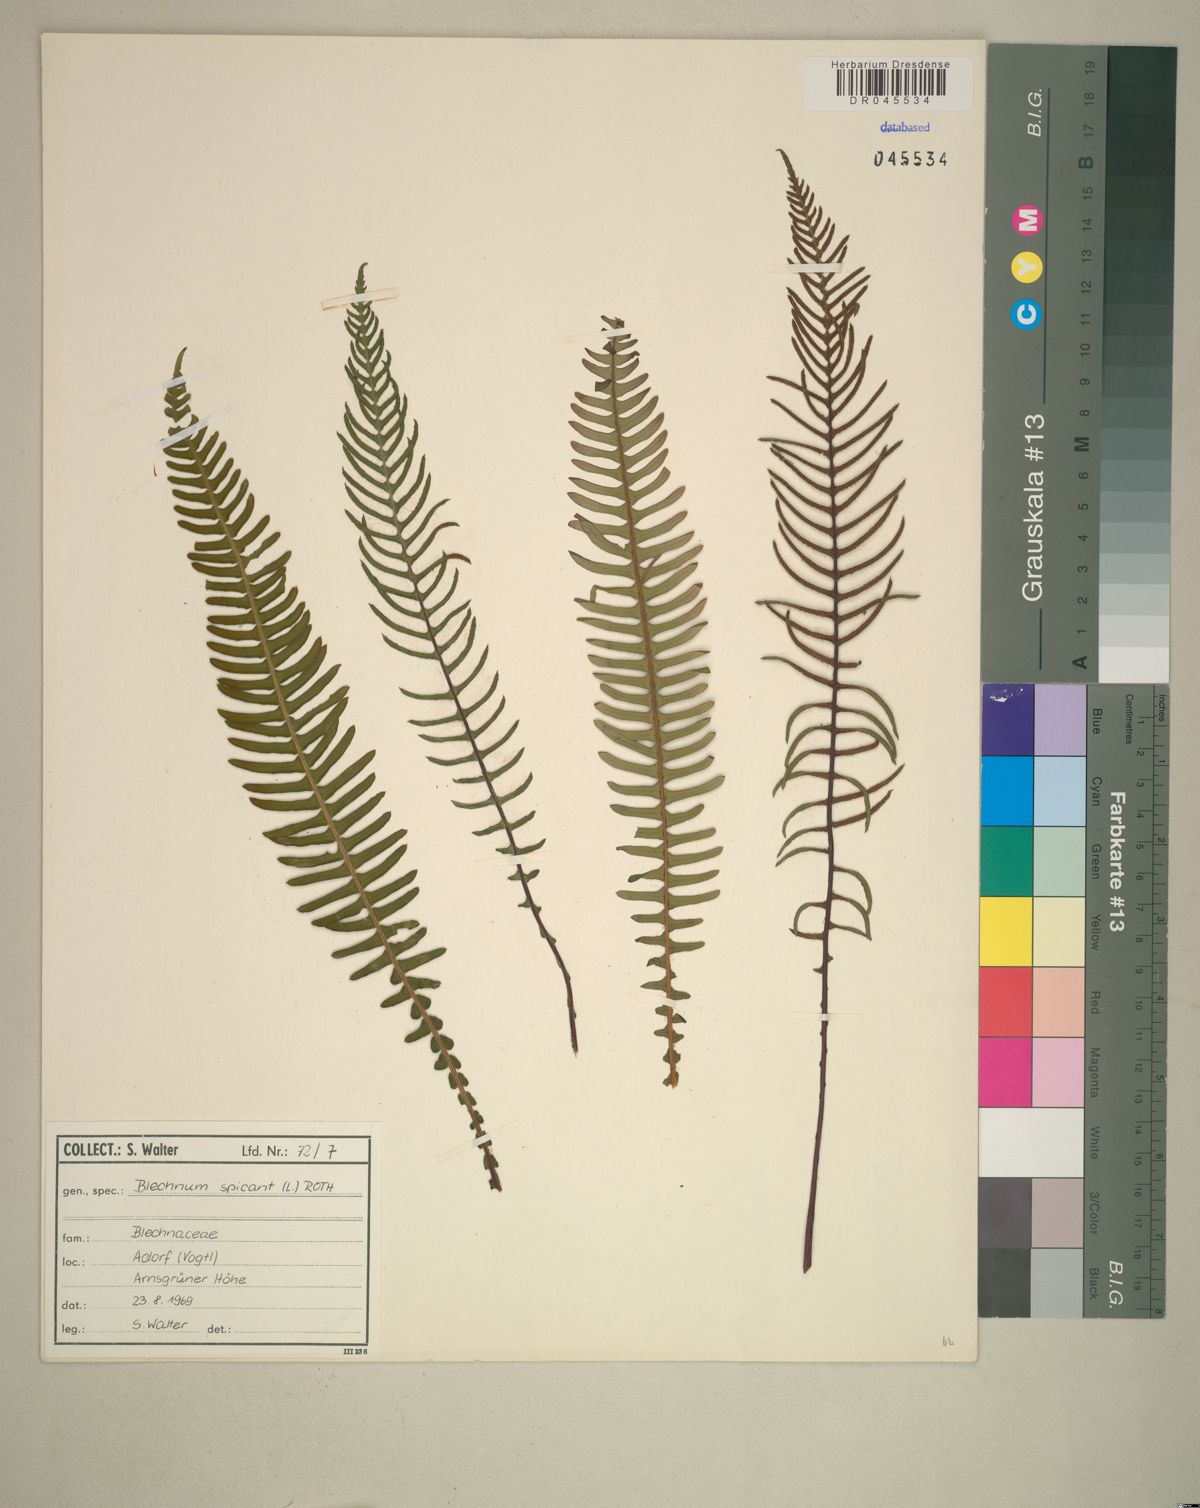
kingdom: Plantae
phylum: Tracheophyta
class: Polypodiopsida
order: Polypodiales
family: Blechnaceae
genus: Struthiopteris
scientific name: Struthiopteris spicant
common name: Deer fern
